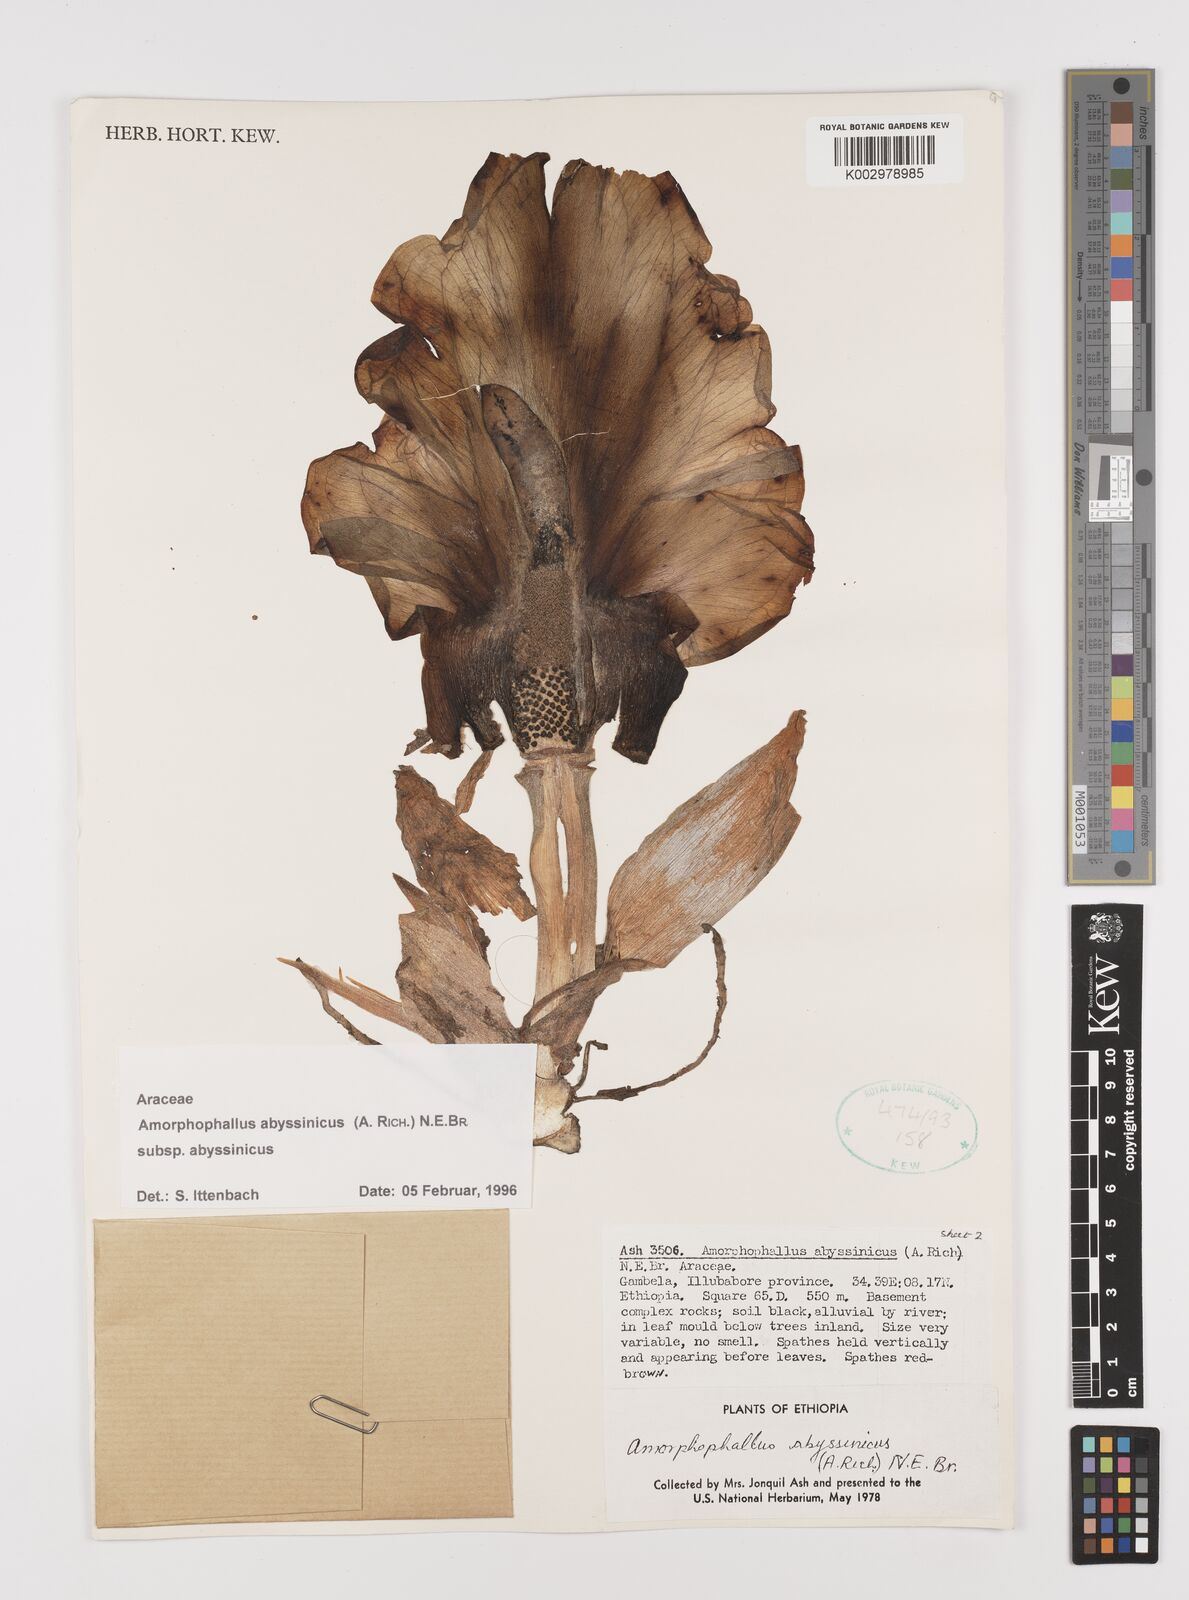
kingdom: Plantae
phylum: Tracheophyta
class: Liliopsida
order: Alismatales
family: Araceae
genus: Amorphophallus
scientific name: Amorphophallus abyssinicus
